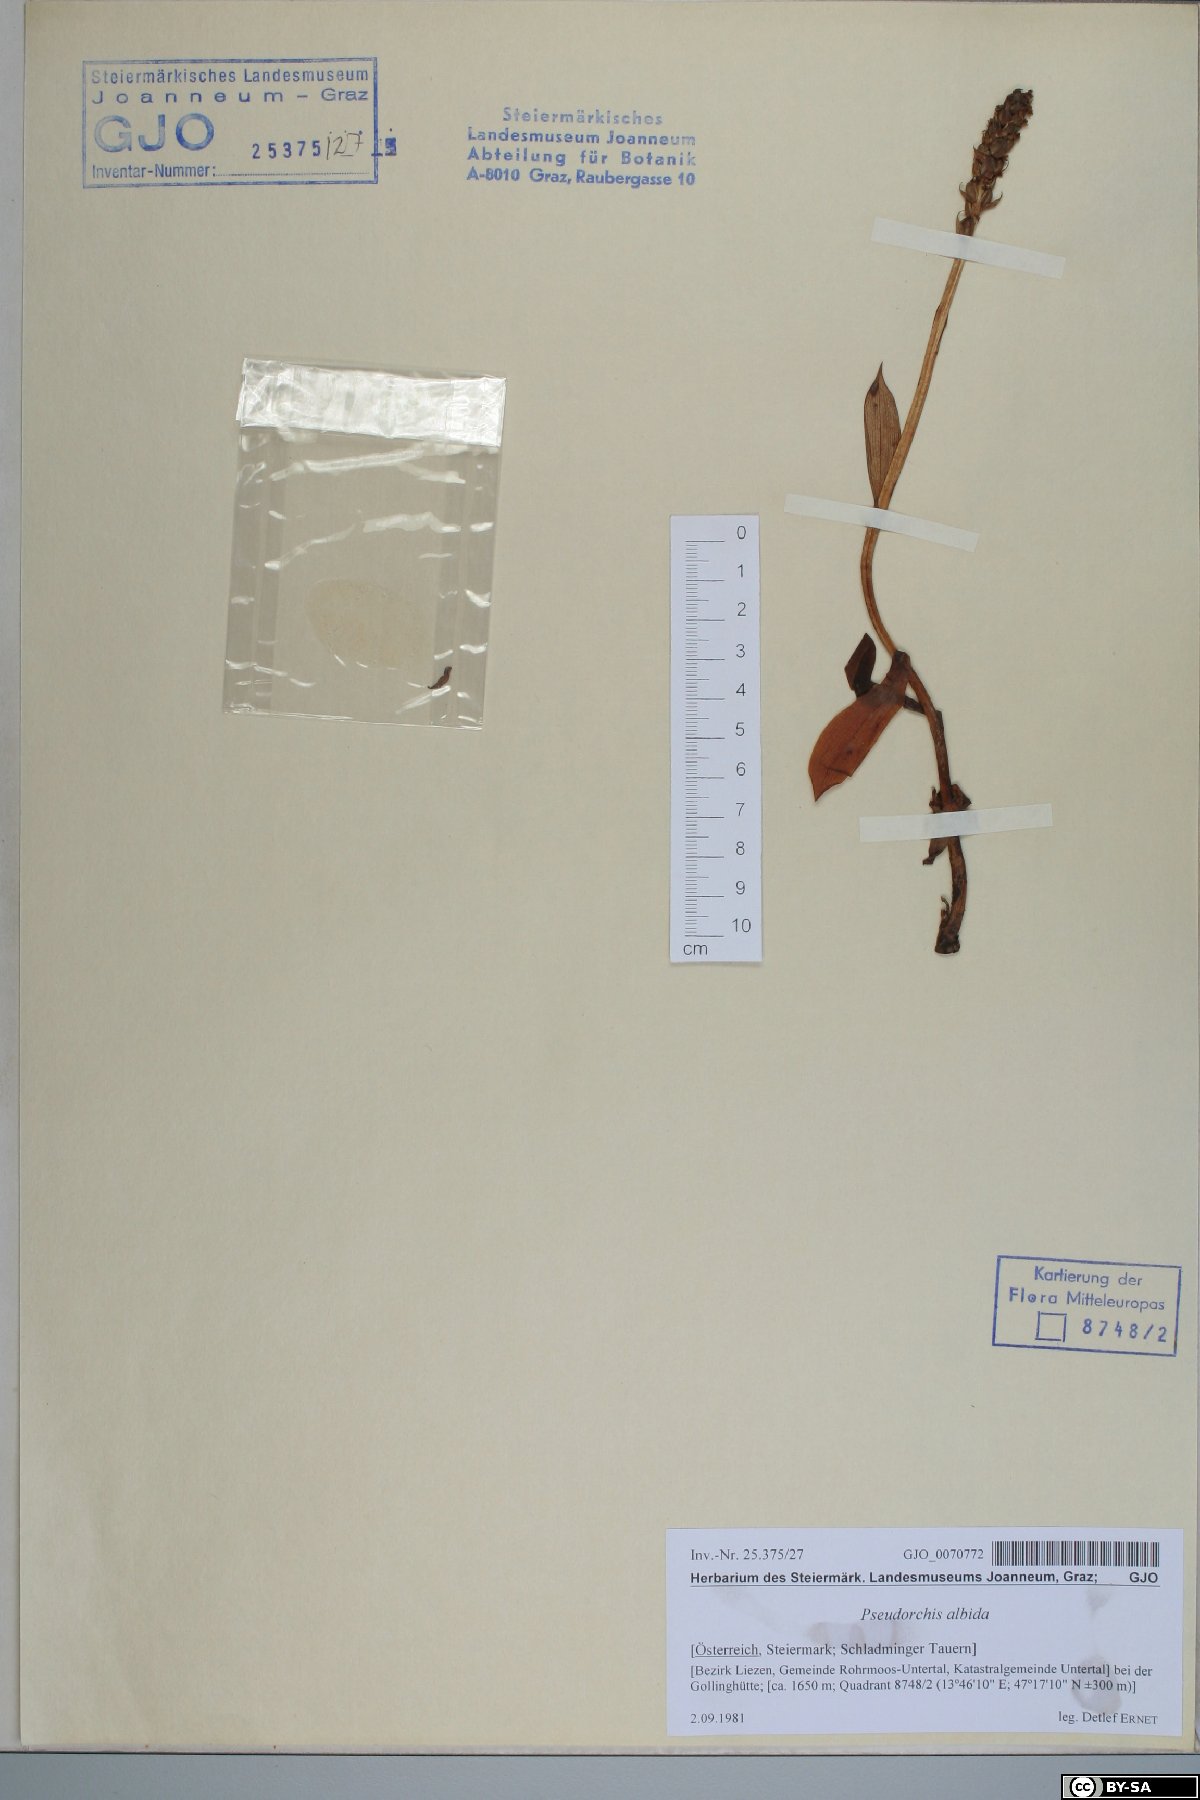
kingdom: Plantae
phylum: Tracheophyta
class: Liliopsida
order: Asparagales
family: Orchidaceae
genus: Pseudorchis
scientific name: Pseudorchis albida
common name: Small-white orchid
